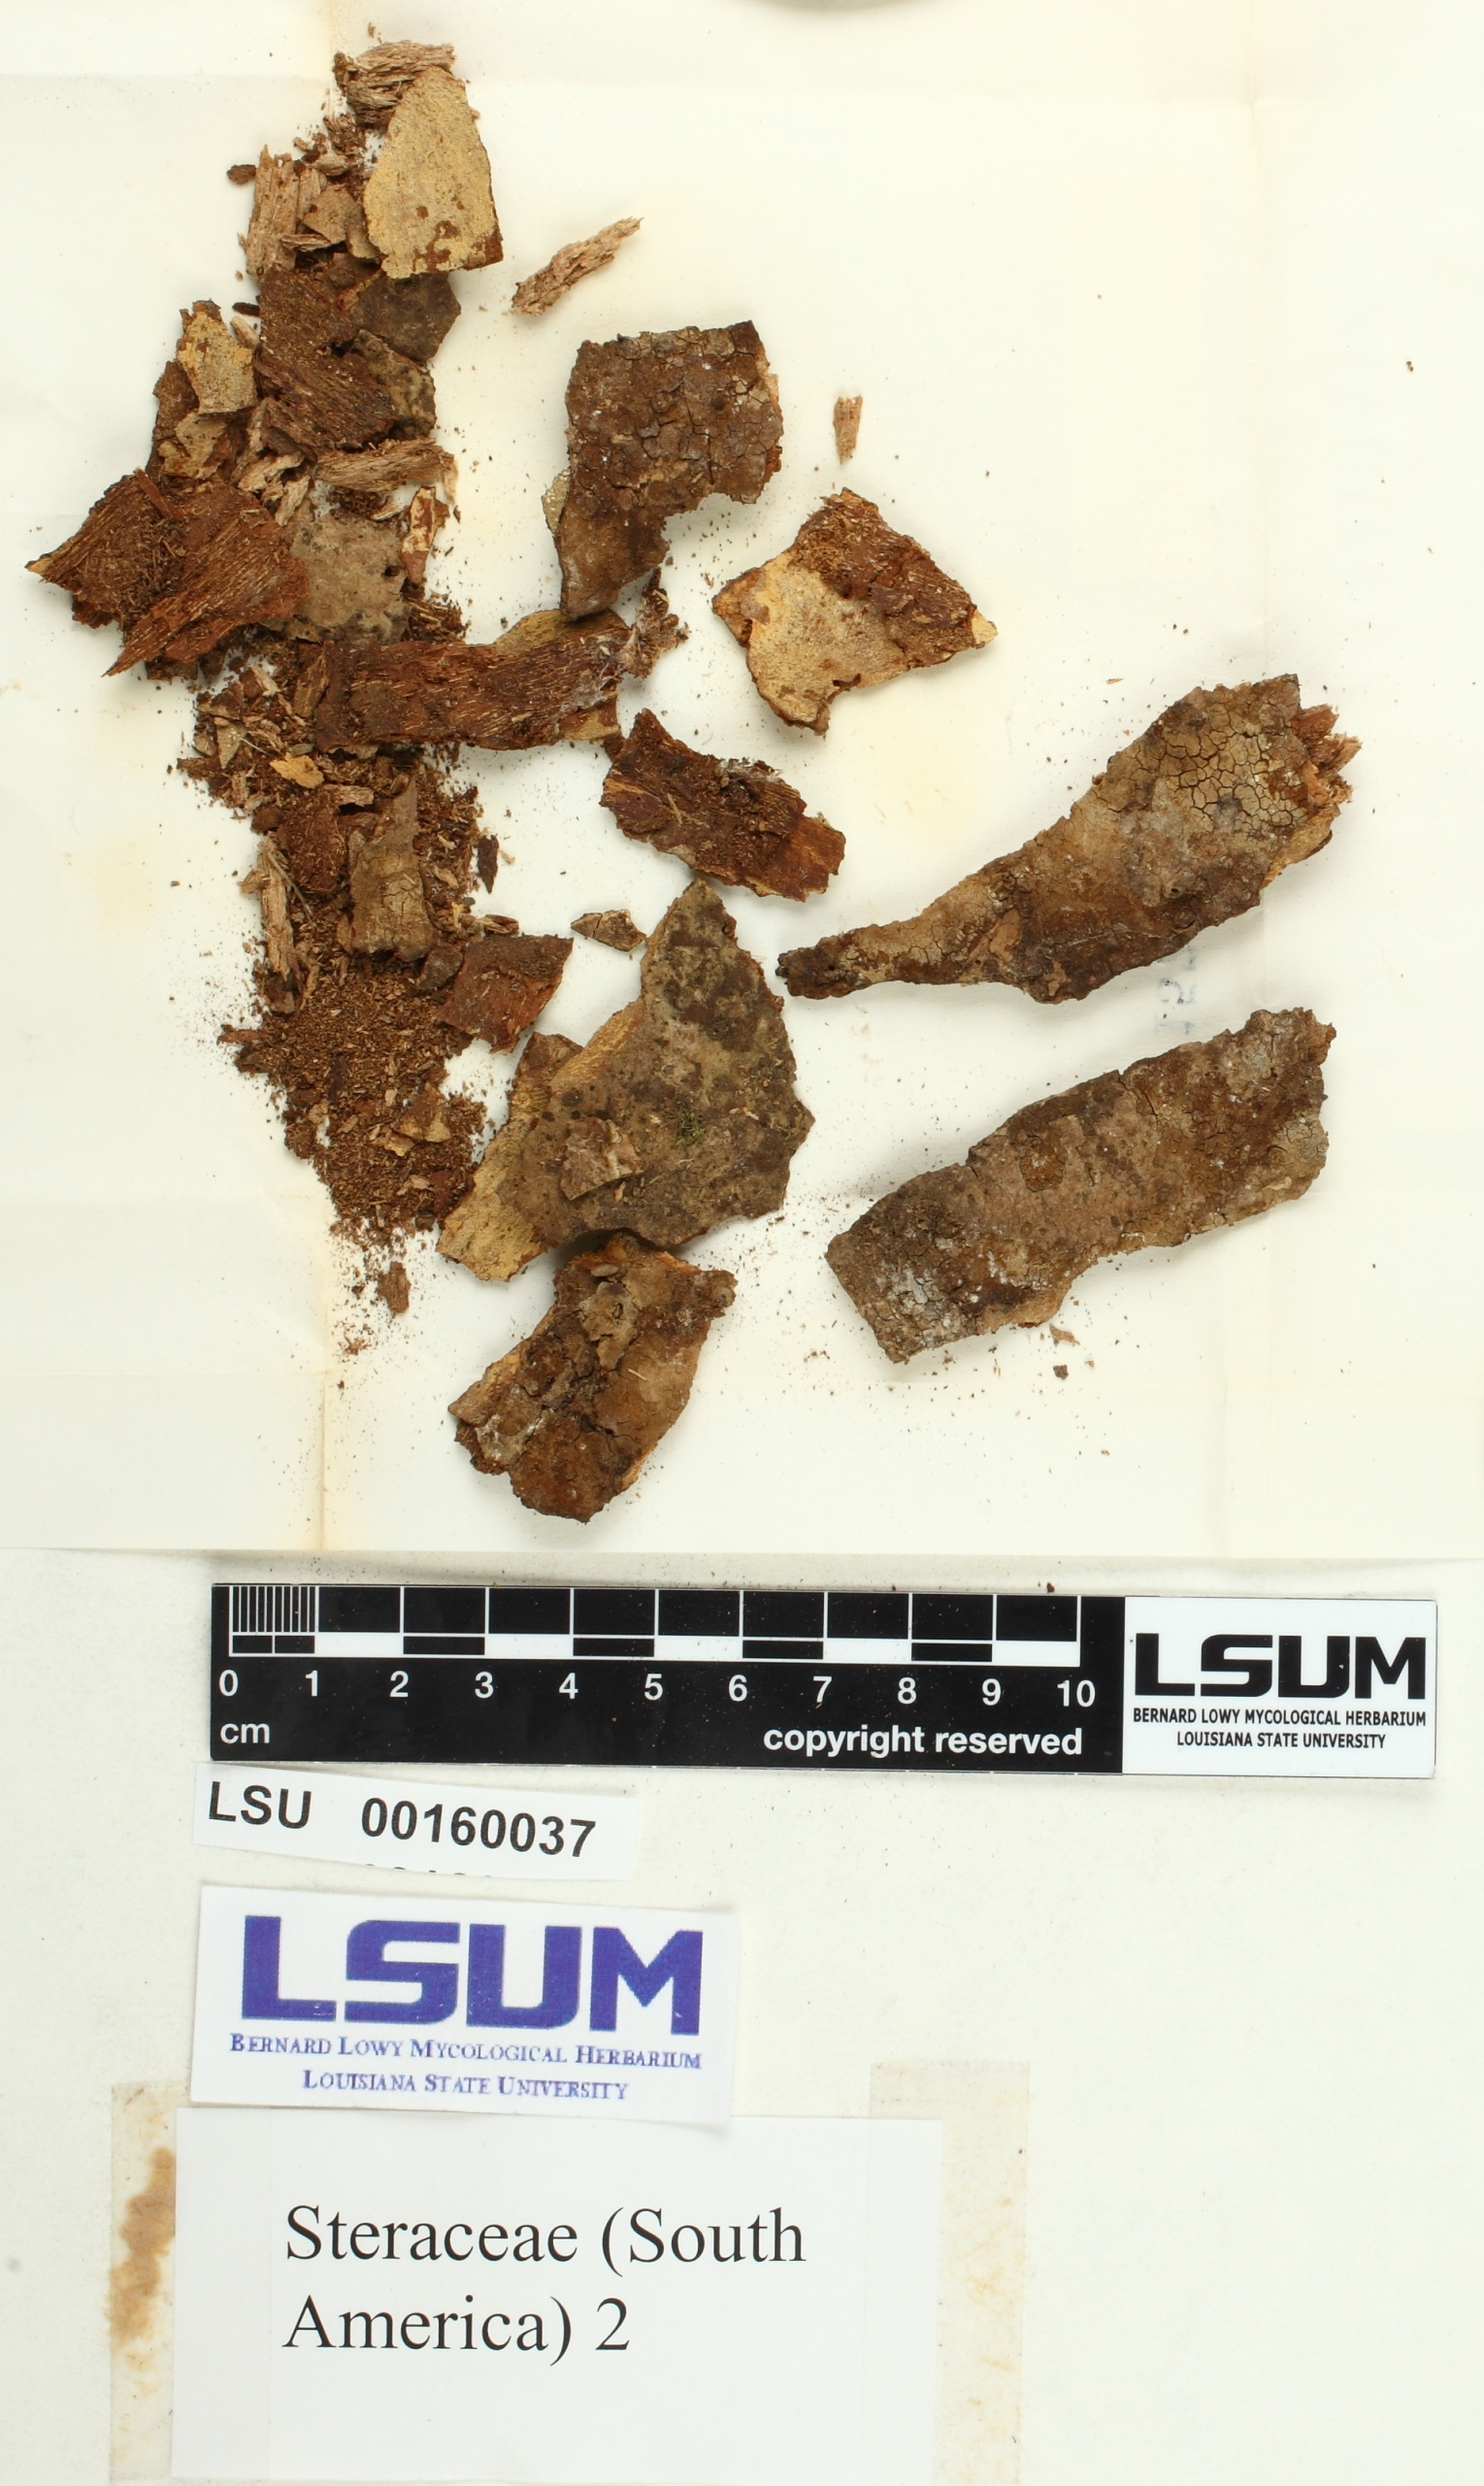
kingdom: Fungi
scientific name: Fungi
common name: Fungi
